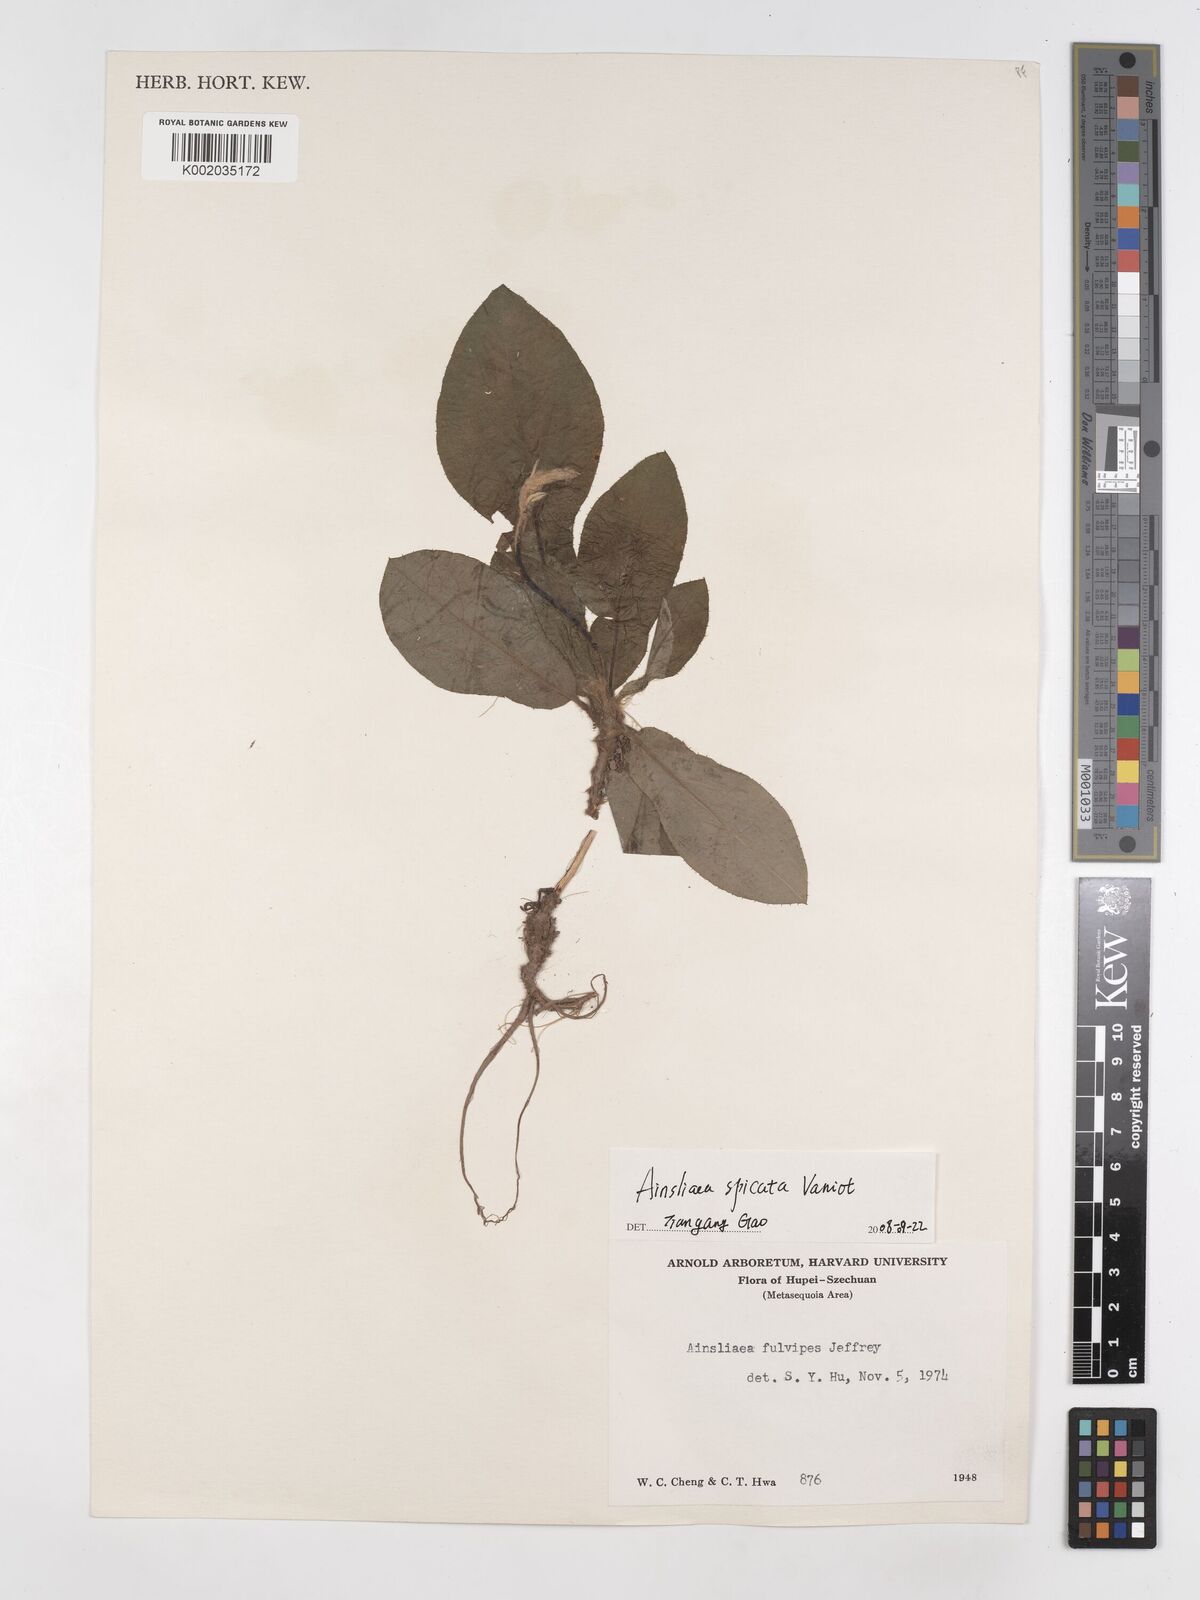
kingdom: Plantae
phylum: Tracheophyta
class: Magnoliopsida
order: Asterales
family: Asteraceae
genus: Ainsliaea
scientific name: Ainsliaea spicata
